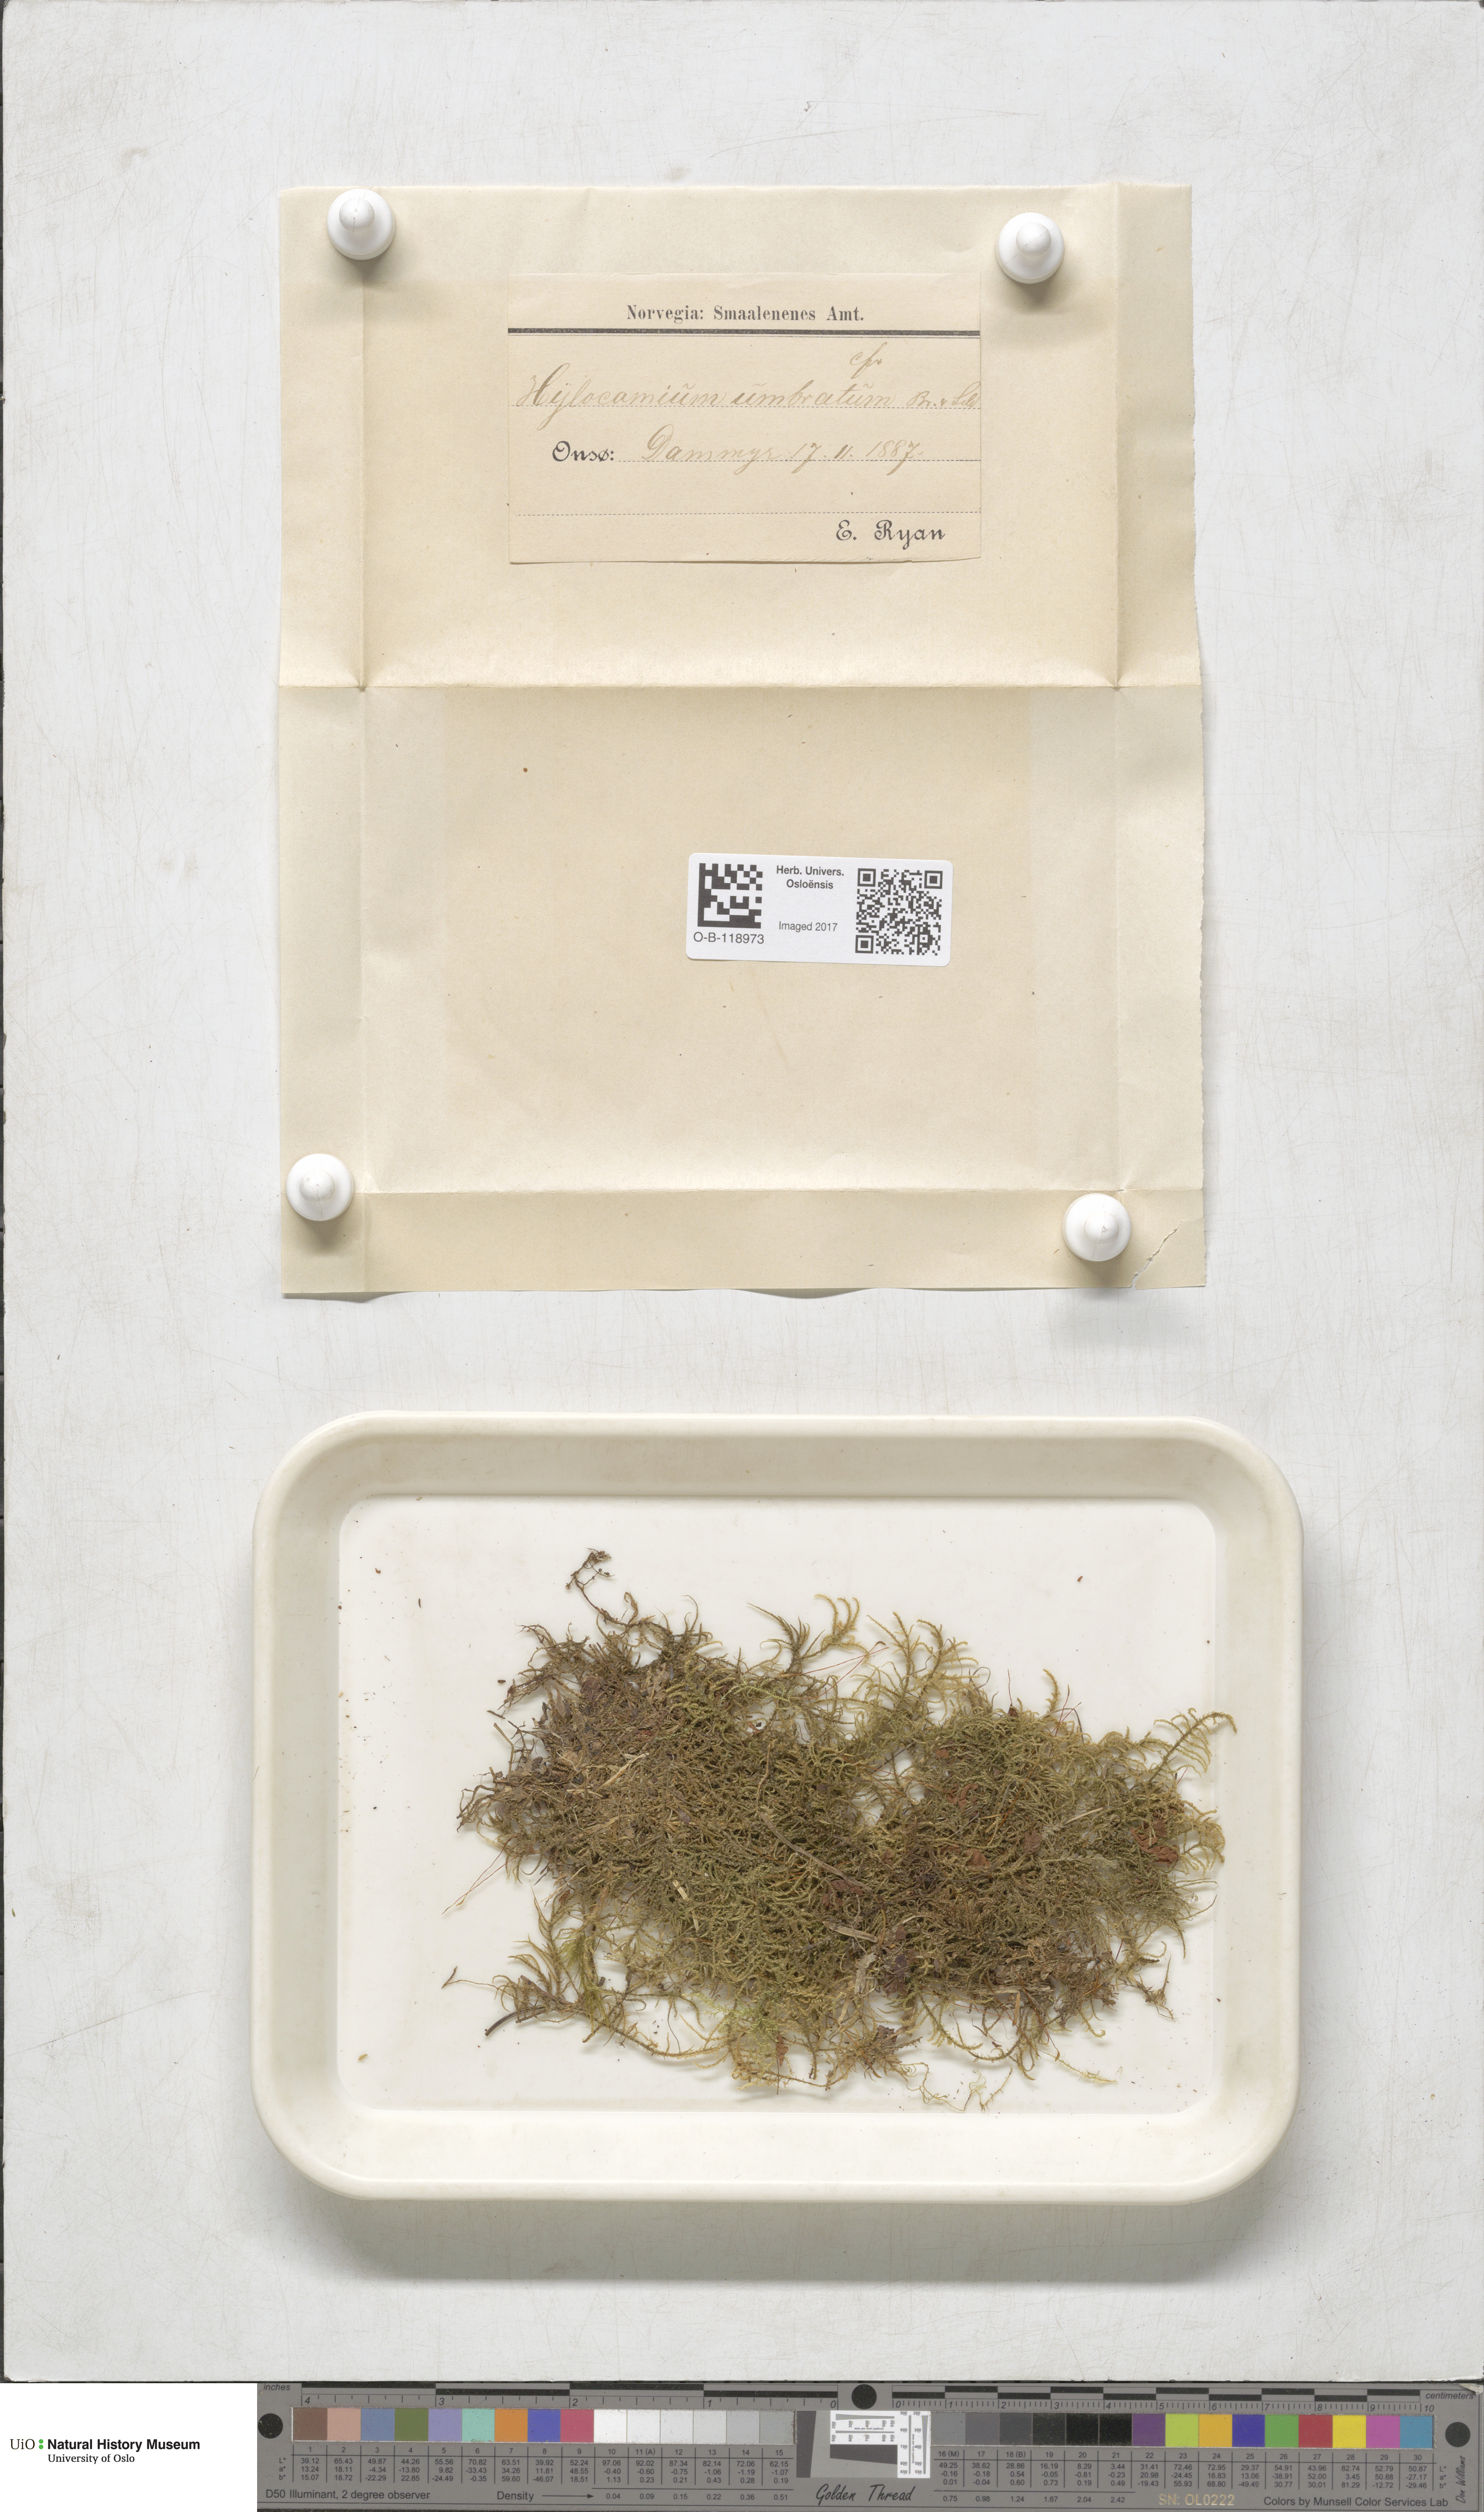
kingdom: Plantae
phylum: Bryophyta
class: Bryopsida
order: Hypnales
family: Hylocomiaceae
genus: Hylocomiastrum
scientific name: Hylocomiastrum umbratum
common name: Shaded woods moss
